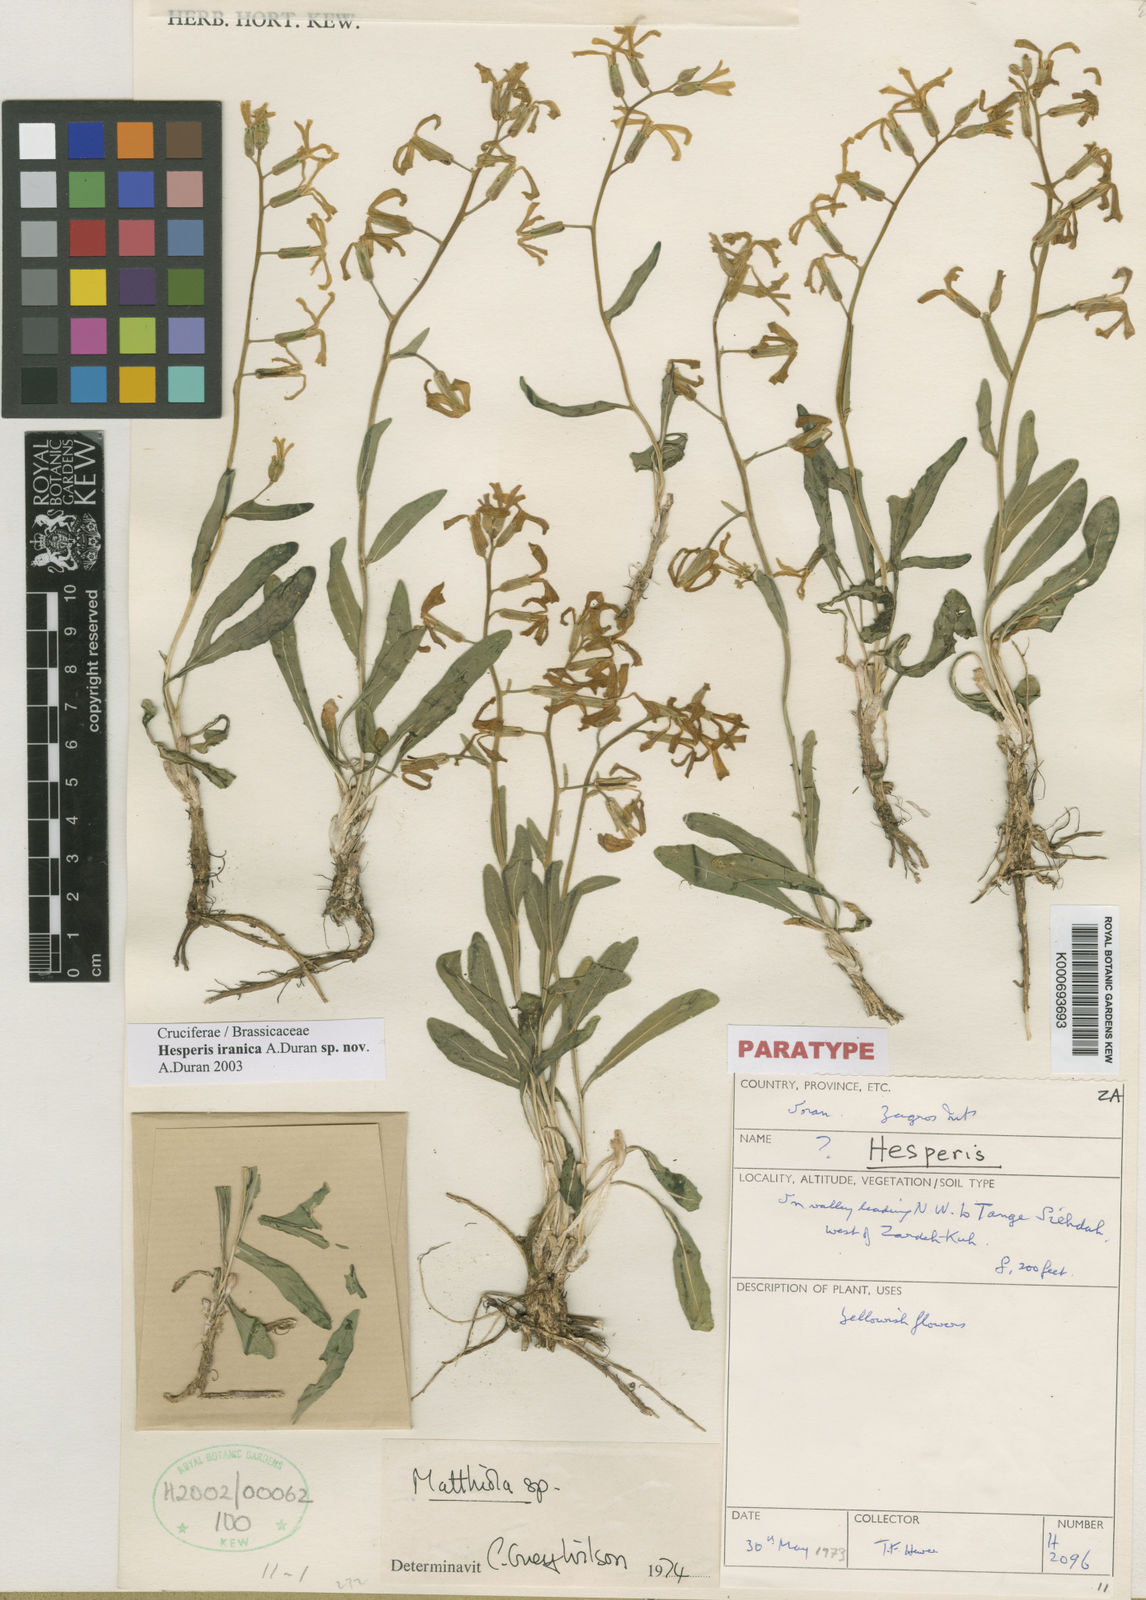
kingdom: Plantae
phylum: Tracheophyta
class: Magnoliopsida
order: Brassicales
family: Brassicaceae
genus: Hesperis
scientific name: Hesperis
